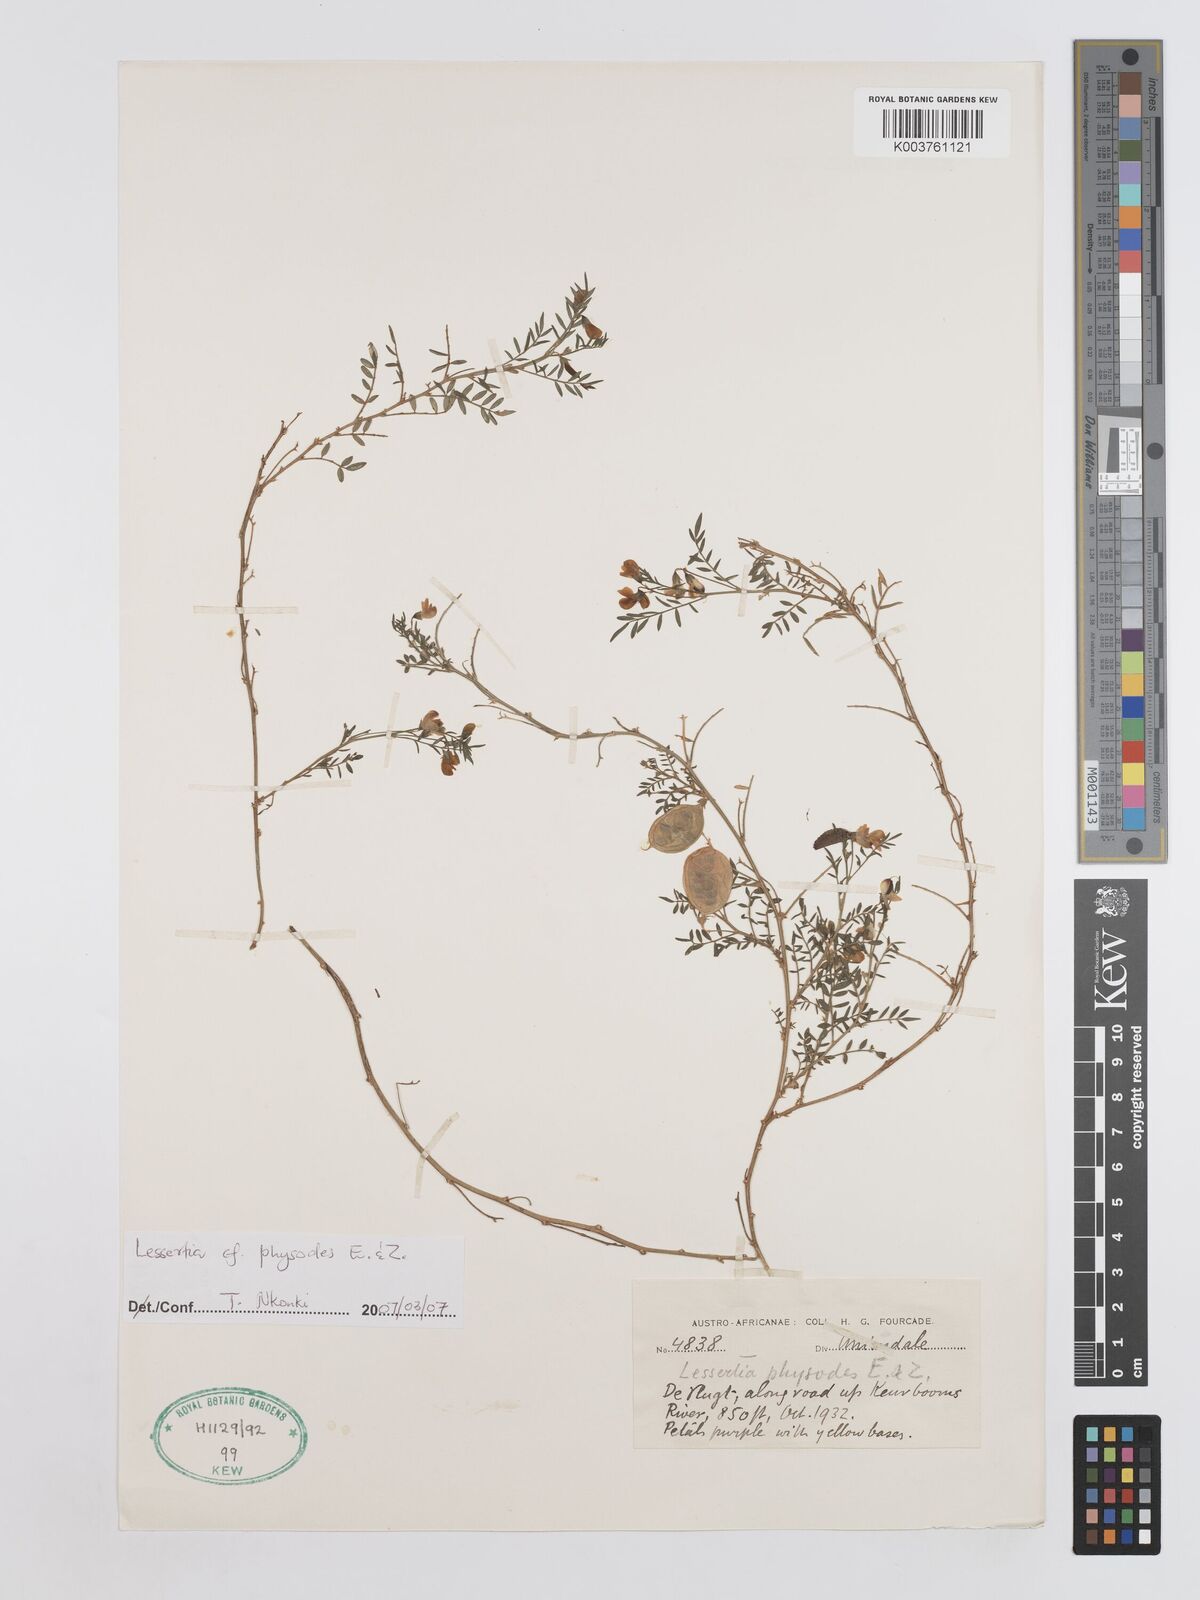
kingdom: Plantae
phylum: Tracheophyta
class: Magnoliopsida
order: Fabales
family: Fabaceae
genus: Lessertia
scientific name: Lessertia physodes
